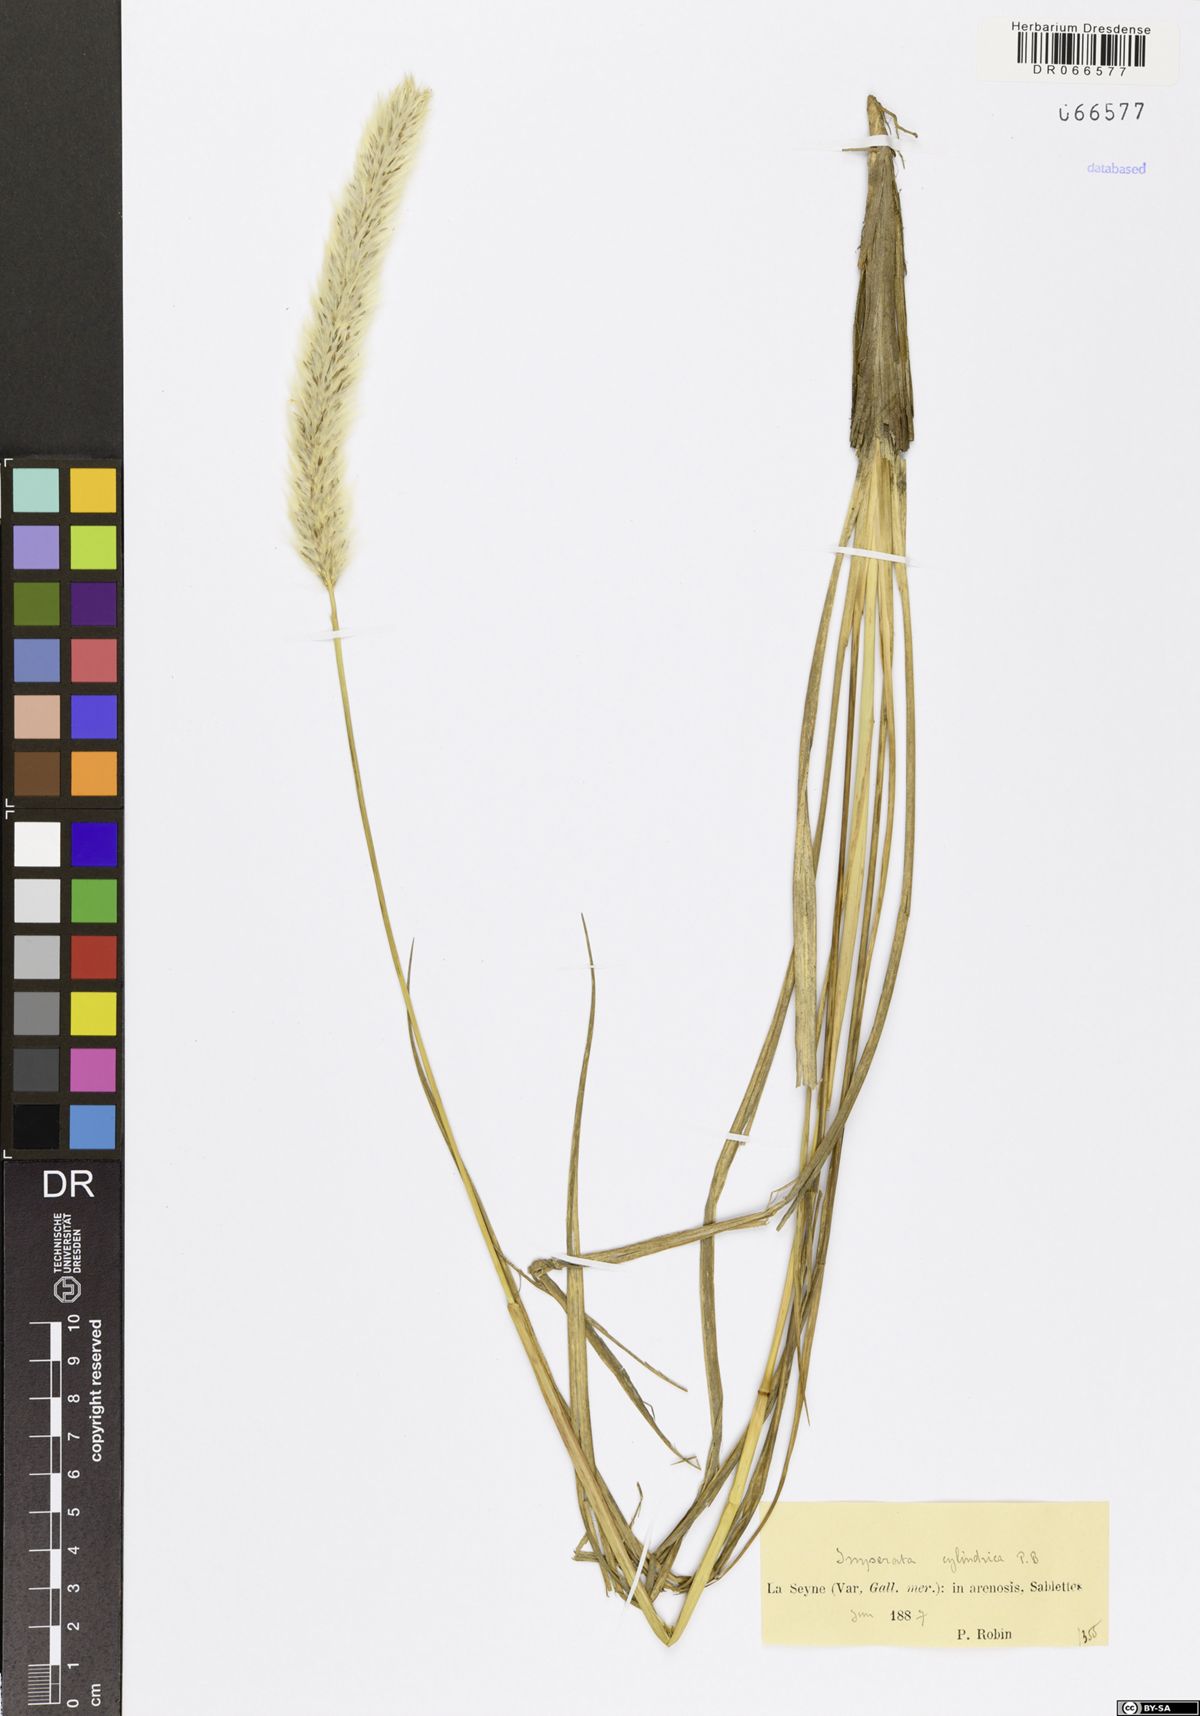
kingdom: Plantae
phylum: Tracheophyta
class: Liliopsida
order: Poales
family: Poaceae
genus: Imperata
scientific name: Imperata cylindrica
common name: Cogongrass
